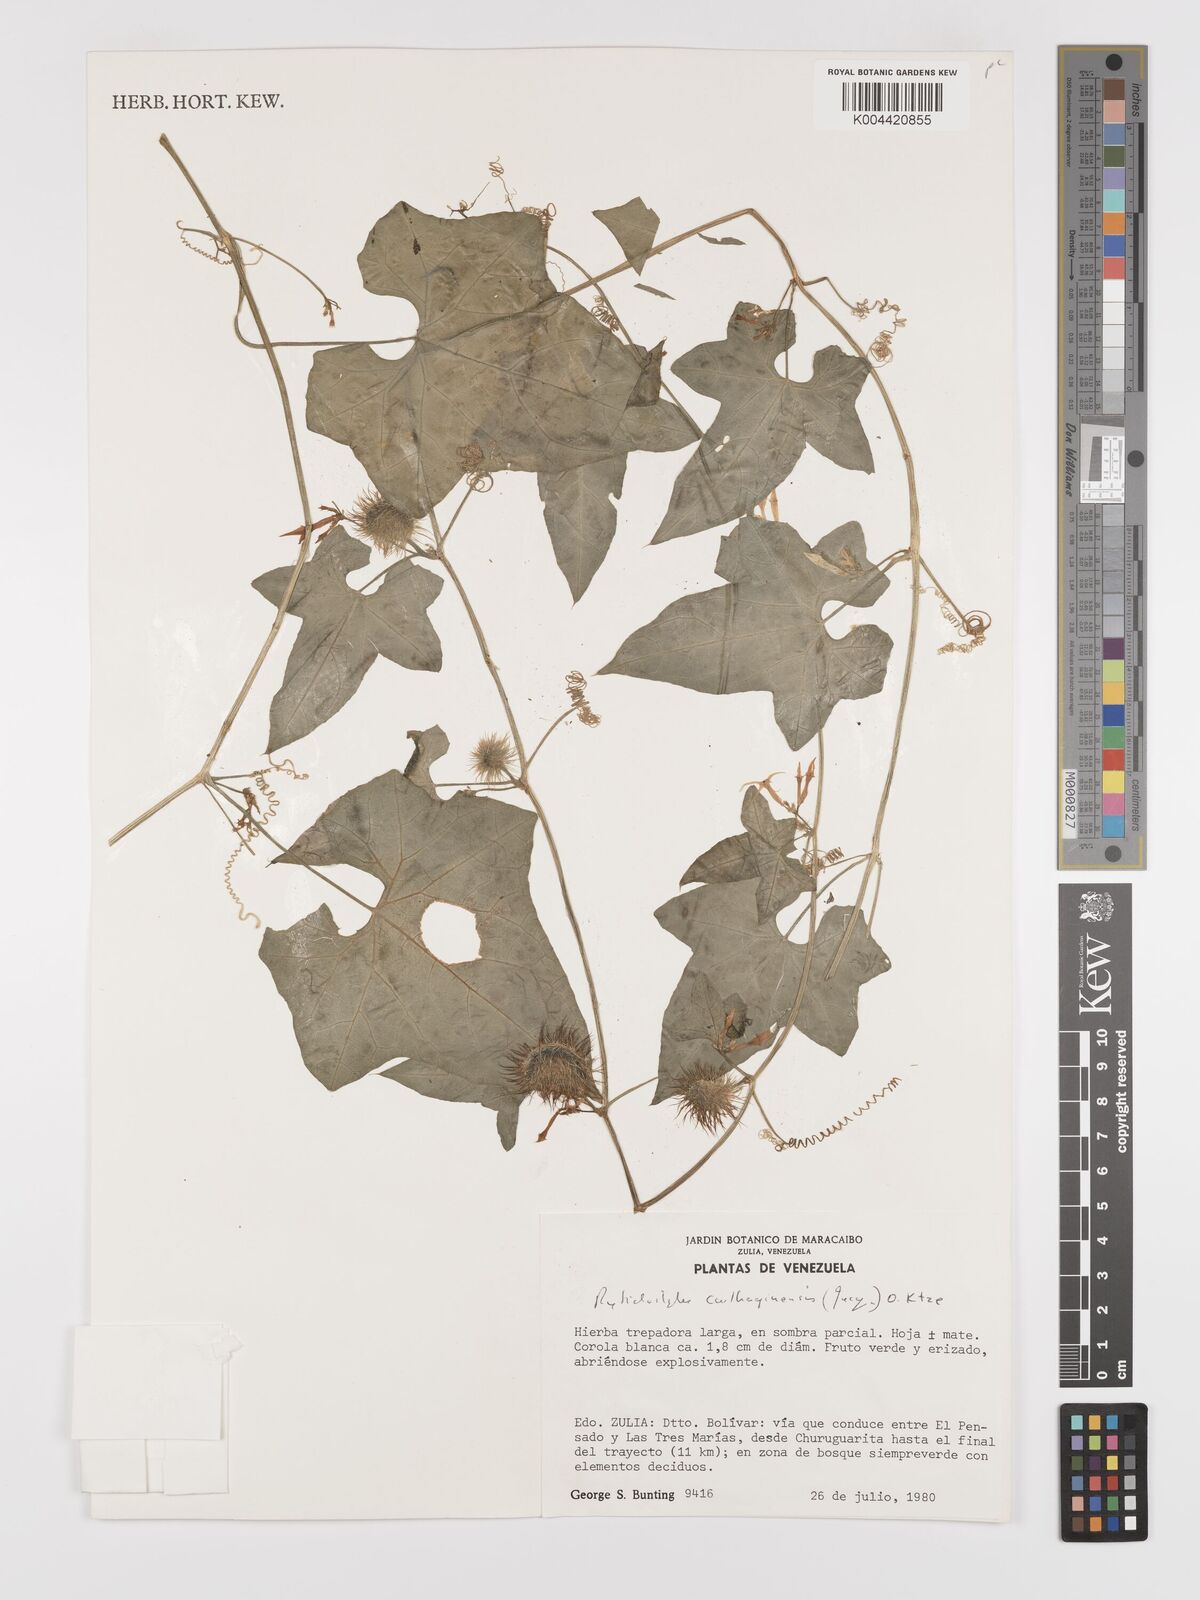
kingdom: Plantae
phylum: Tracheophyta
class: Magnoliopsida
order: Cucurbitales
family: Cucurbitaceae
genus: Cyclanthera
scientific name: Cyclanthera carthagenensis
